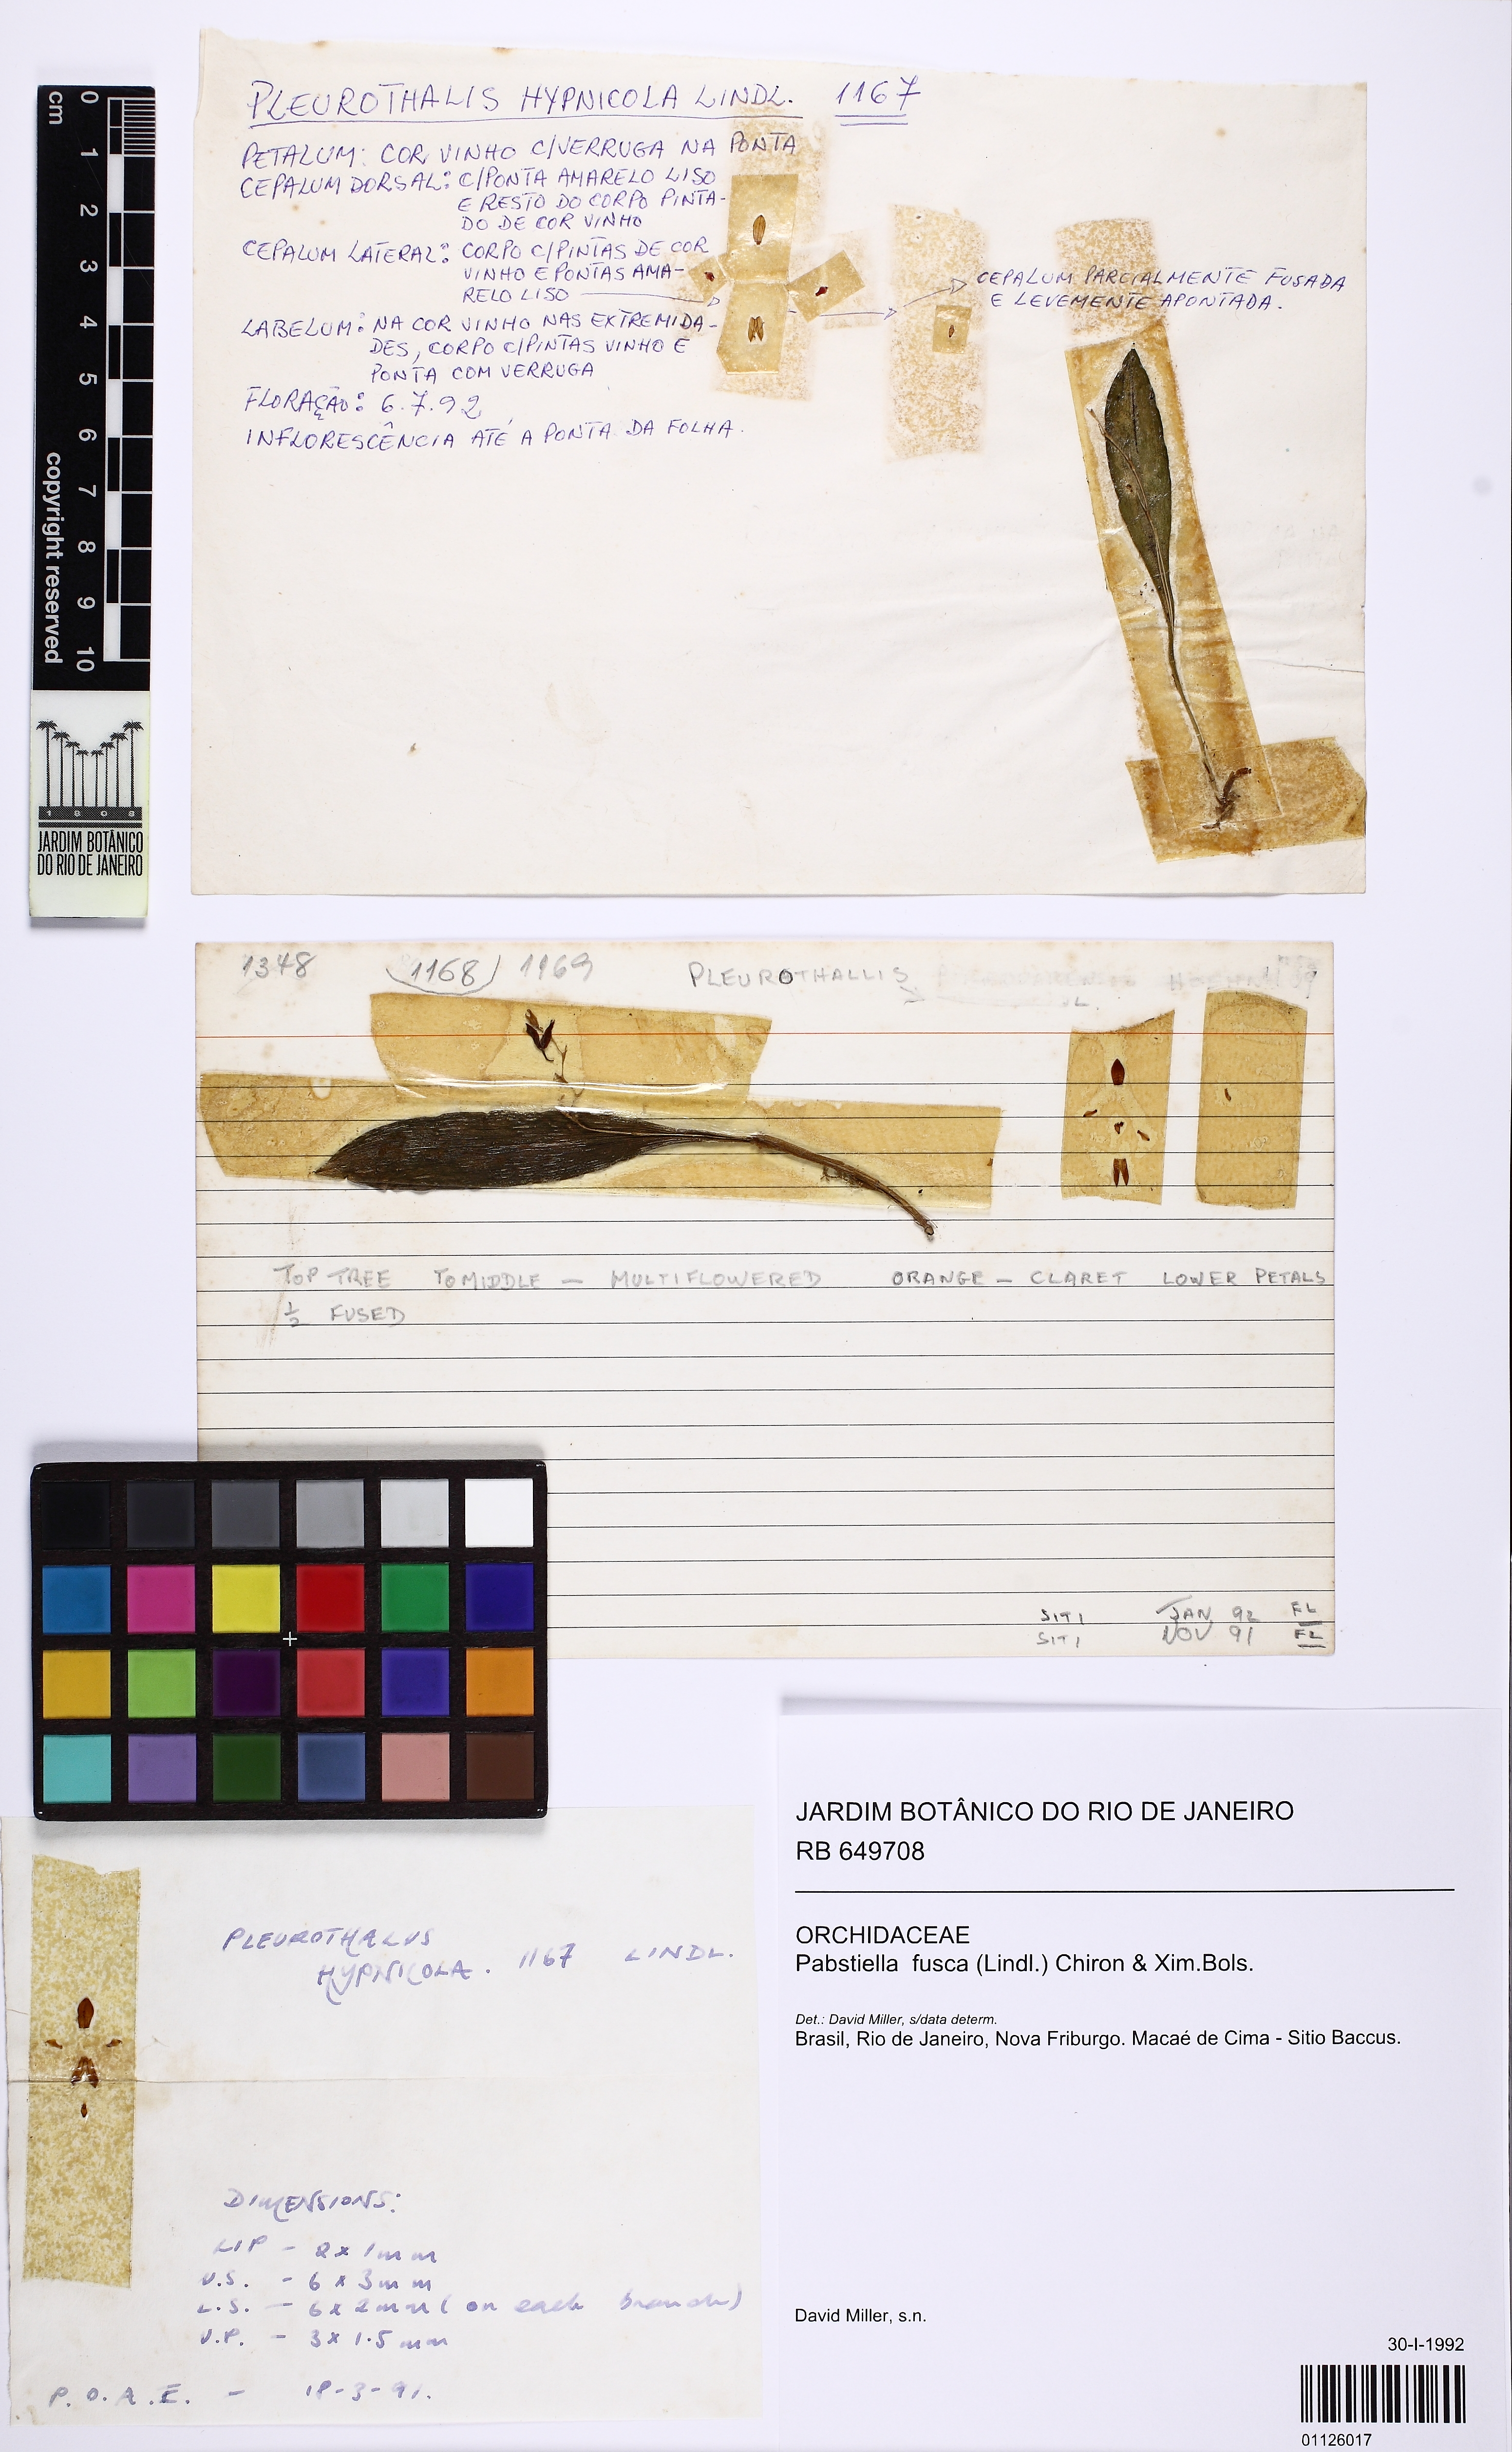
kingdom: Plantae
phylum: Tracheophyta
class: Liliopsida
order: Asparagales
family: Orchidaceae
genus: Pabstiella
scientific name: Pabstiella fusca
